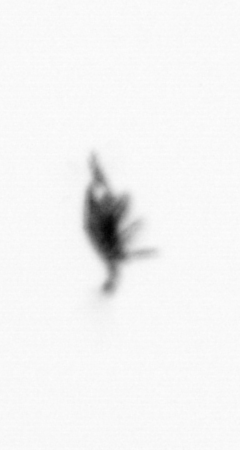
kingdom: Animalia
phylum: Arthropoda
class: Copepoda
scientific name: Copepoda
